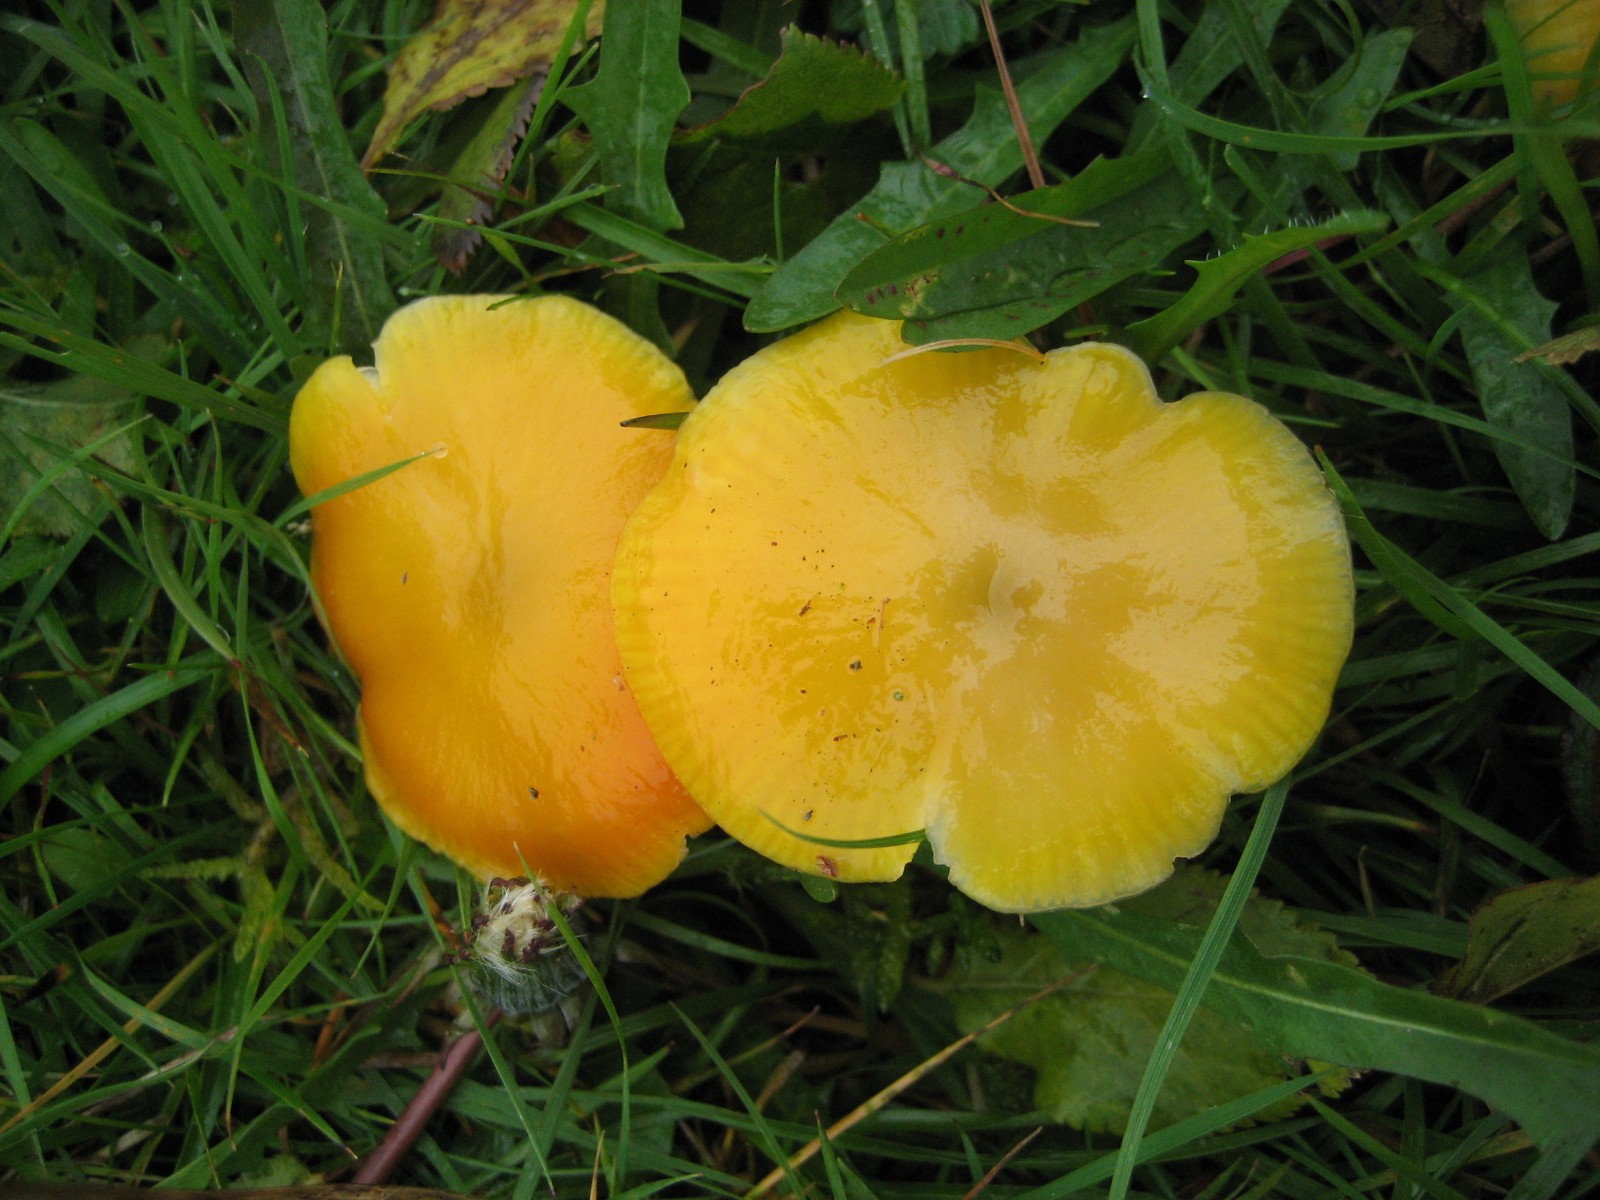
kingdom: Fungi
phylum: Basidiomycota
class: Agaricomycetes
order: Agaricales
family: Hygrophoraceae
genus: Hygrocybe
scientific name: Hygrocybe ceracea
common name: voksgul vokshat
